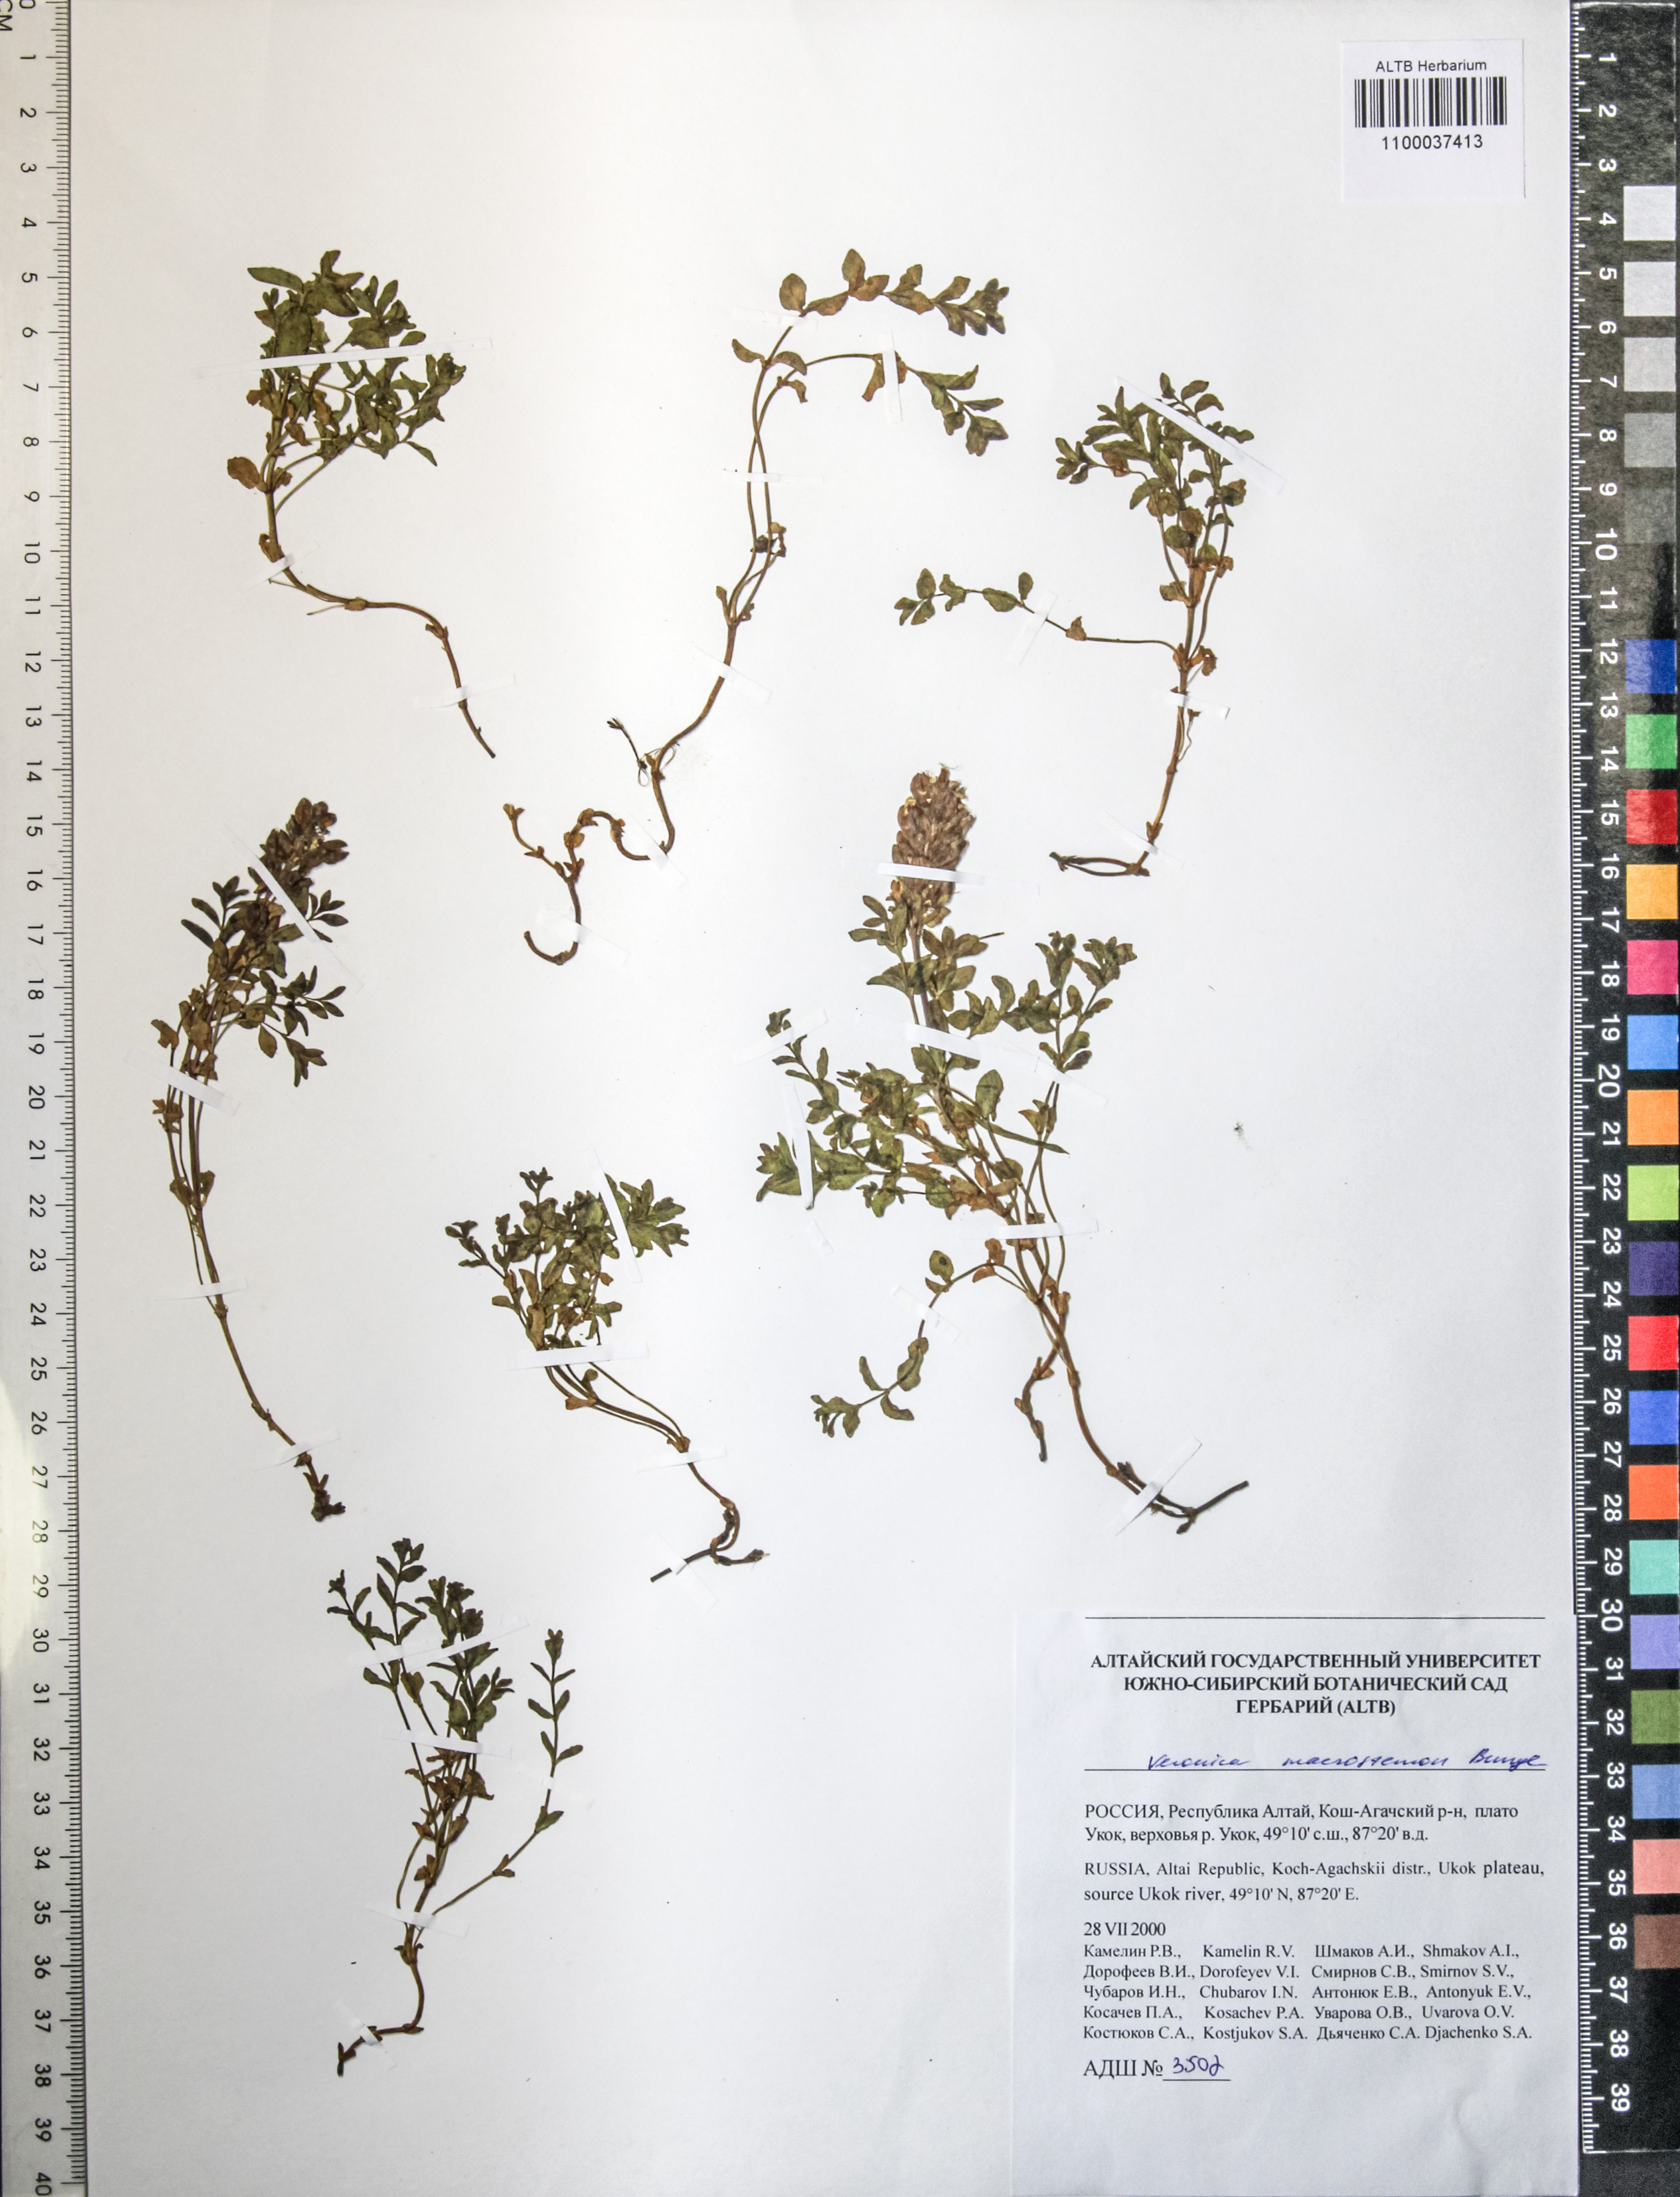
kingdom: Plantae
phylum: Tracheophyta
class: Magnoliopsida
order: Lamiales
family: Plantaginaceae
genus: Veronica
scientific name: Veronica macrostemon
